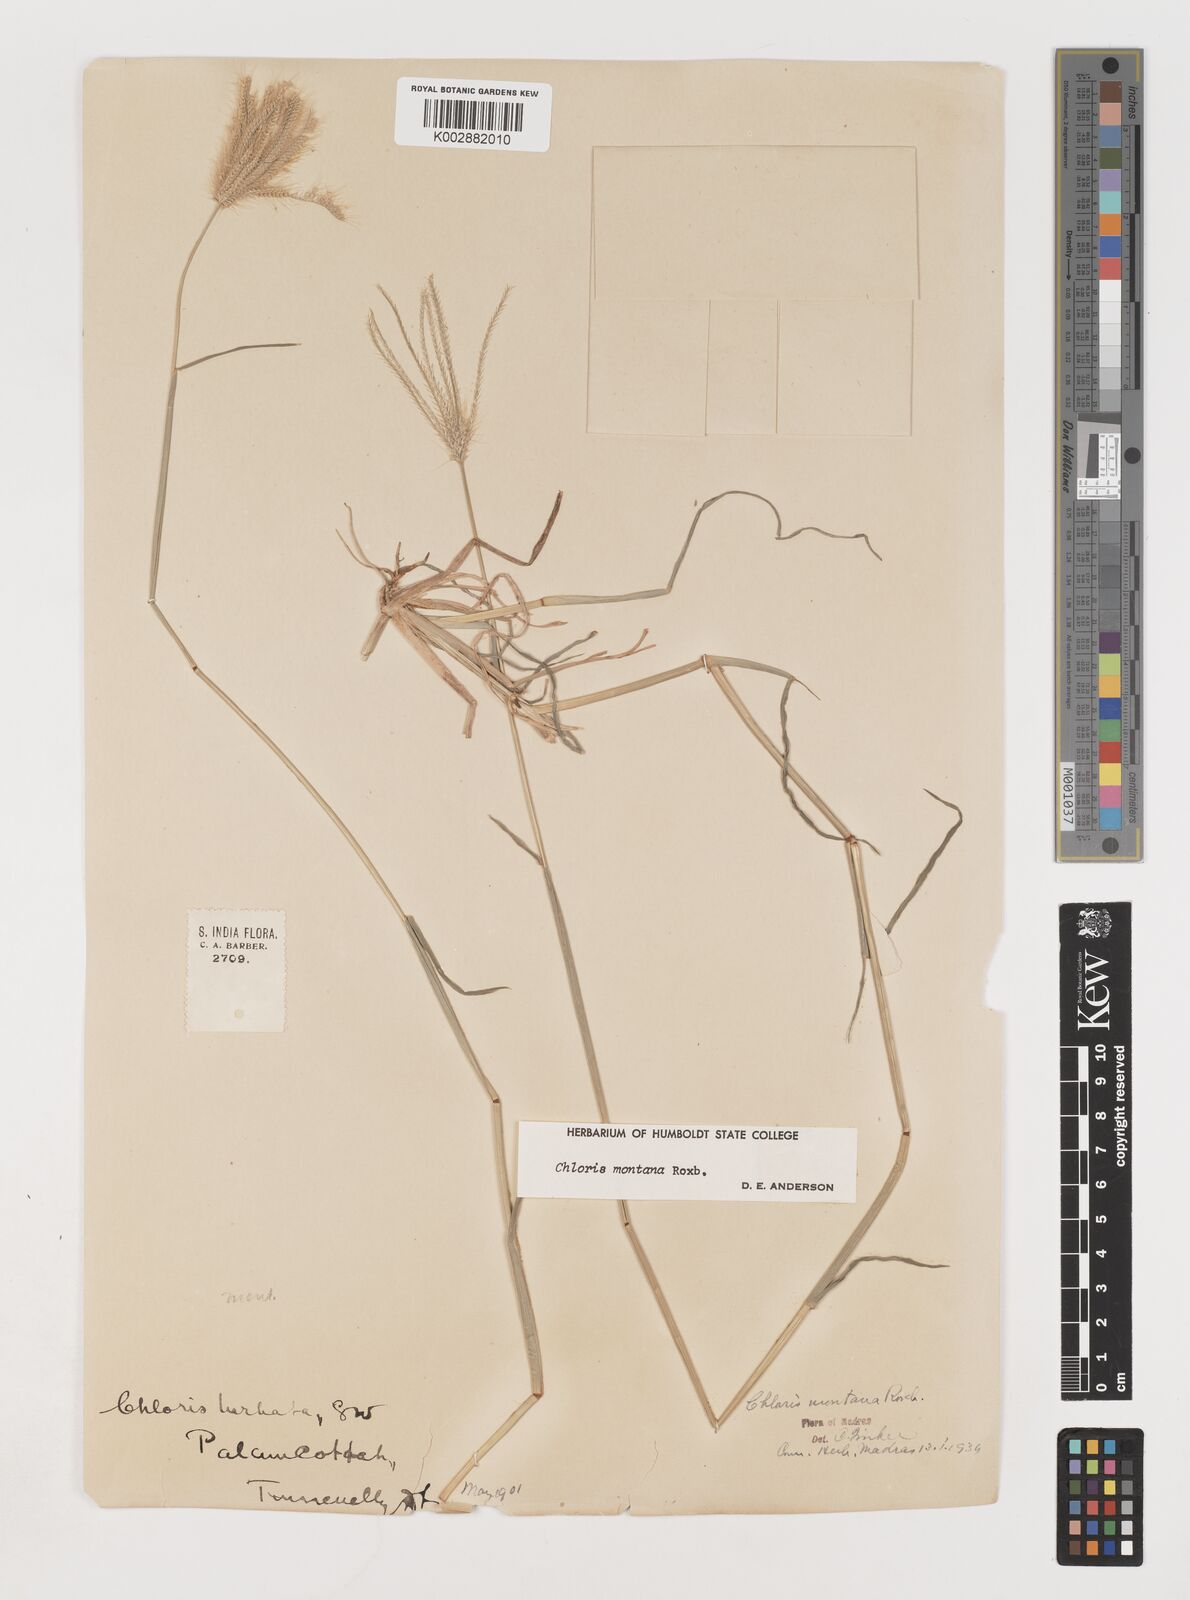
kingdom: Plantae
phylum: Tracheophyta
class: Liliopsida
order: Poales
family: Poaceae
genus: Chloris
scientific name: Chloris montana
